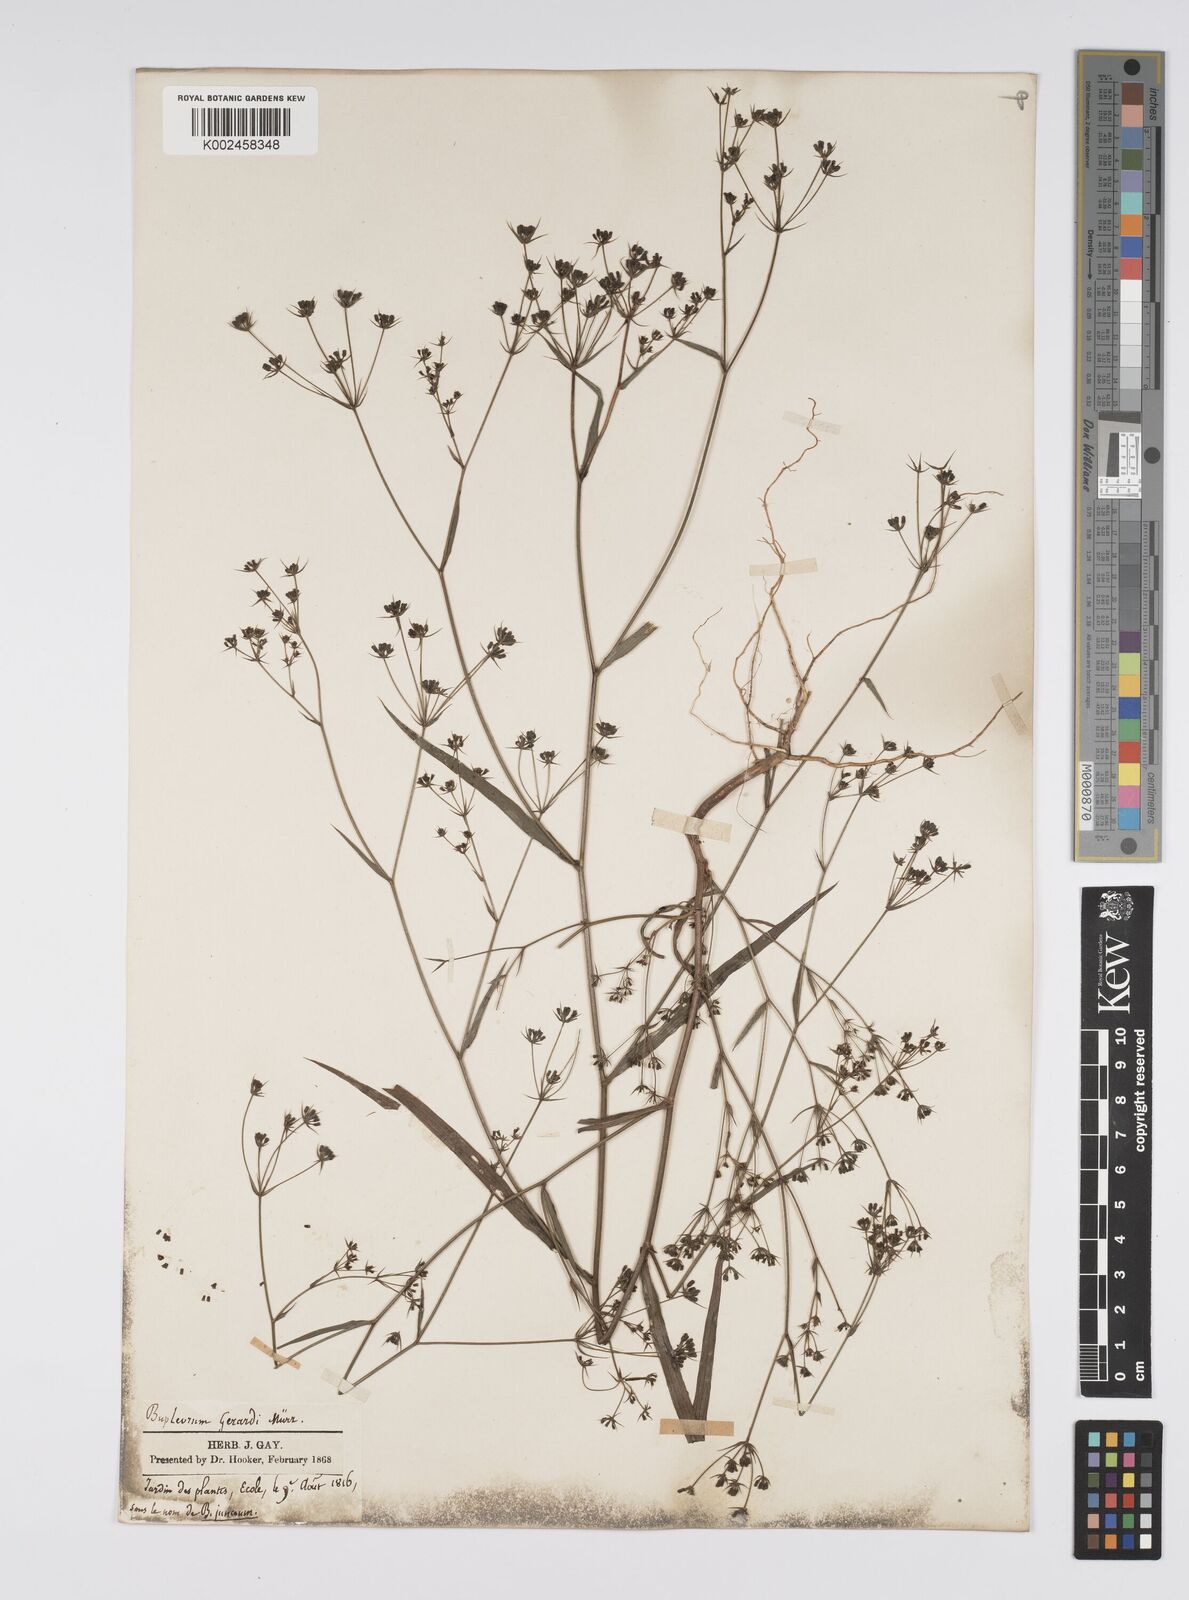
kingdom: Plantae
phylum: Tracheophyta
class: Magnoliopsida
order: Apiales
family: Apiaceae
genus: Bupleurum
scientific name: Bupleurum gerardi
